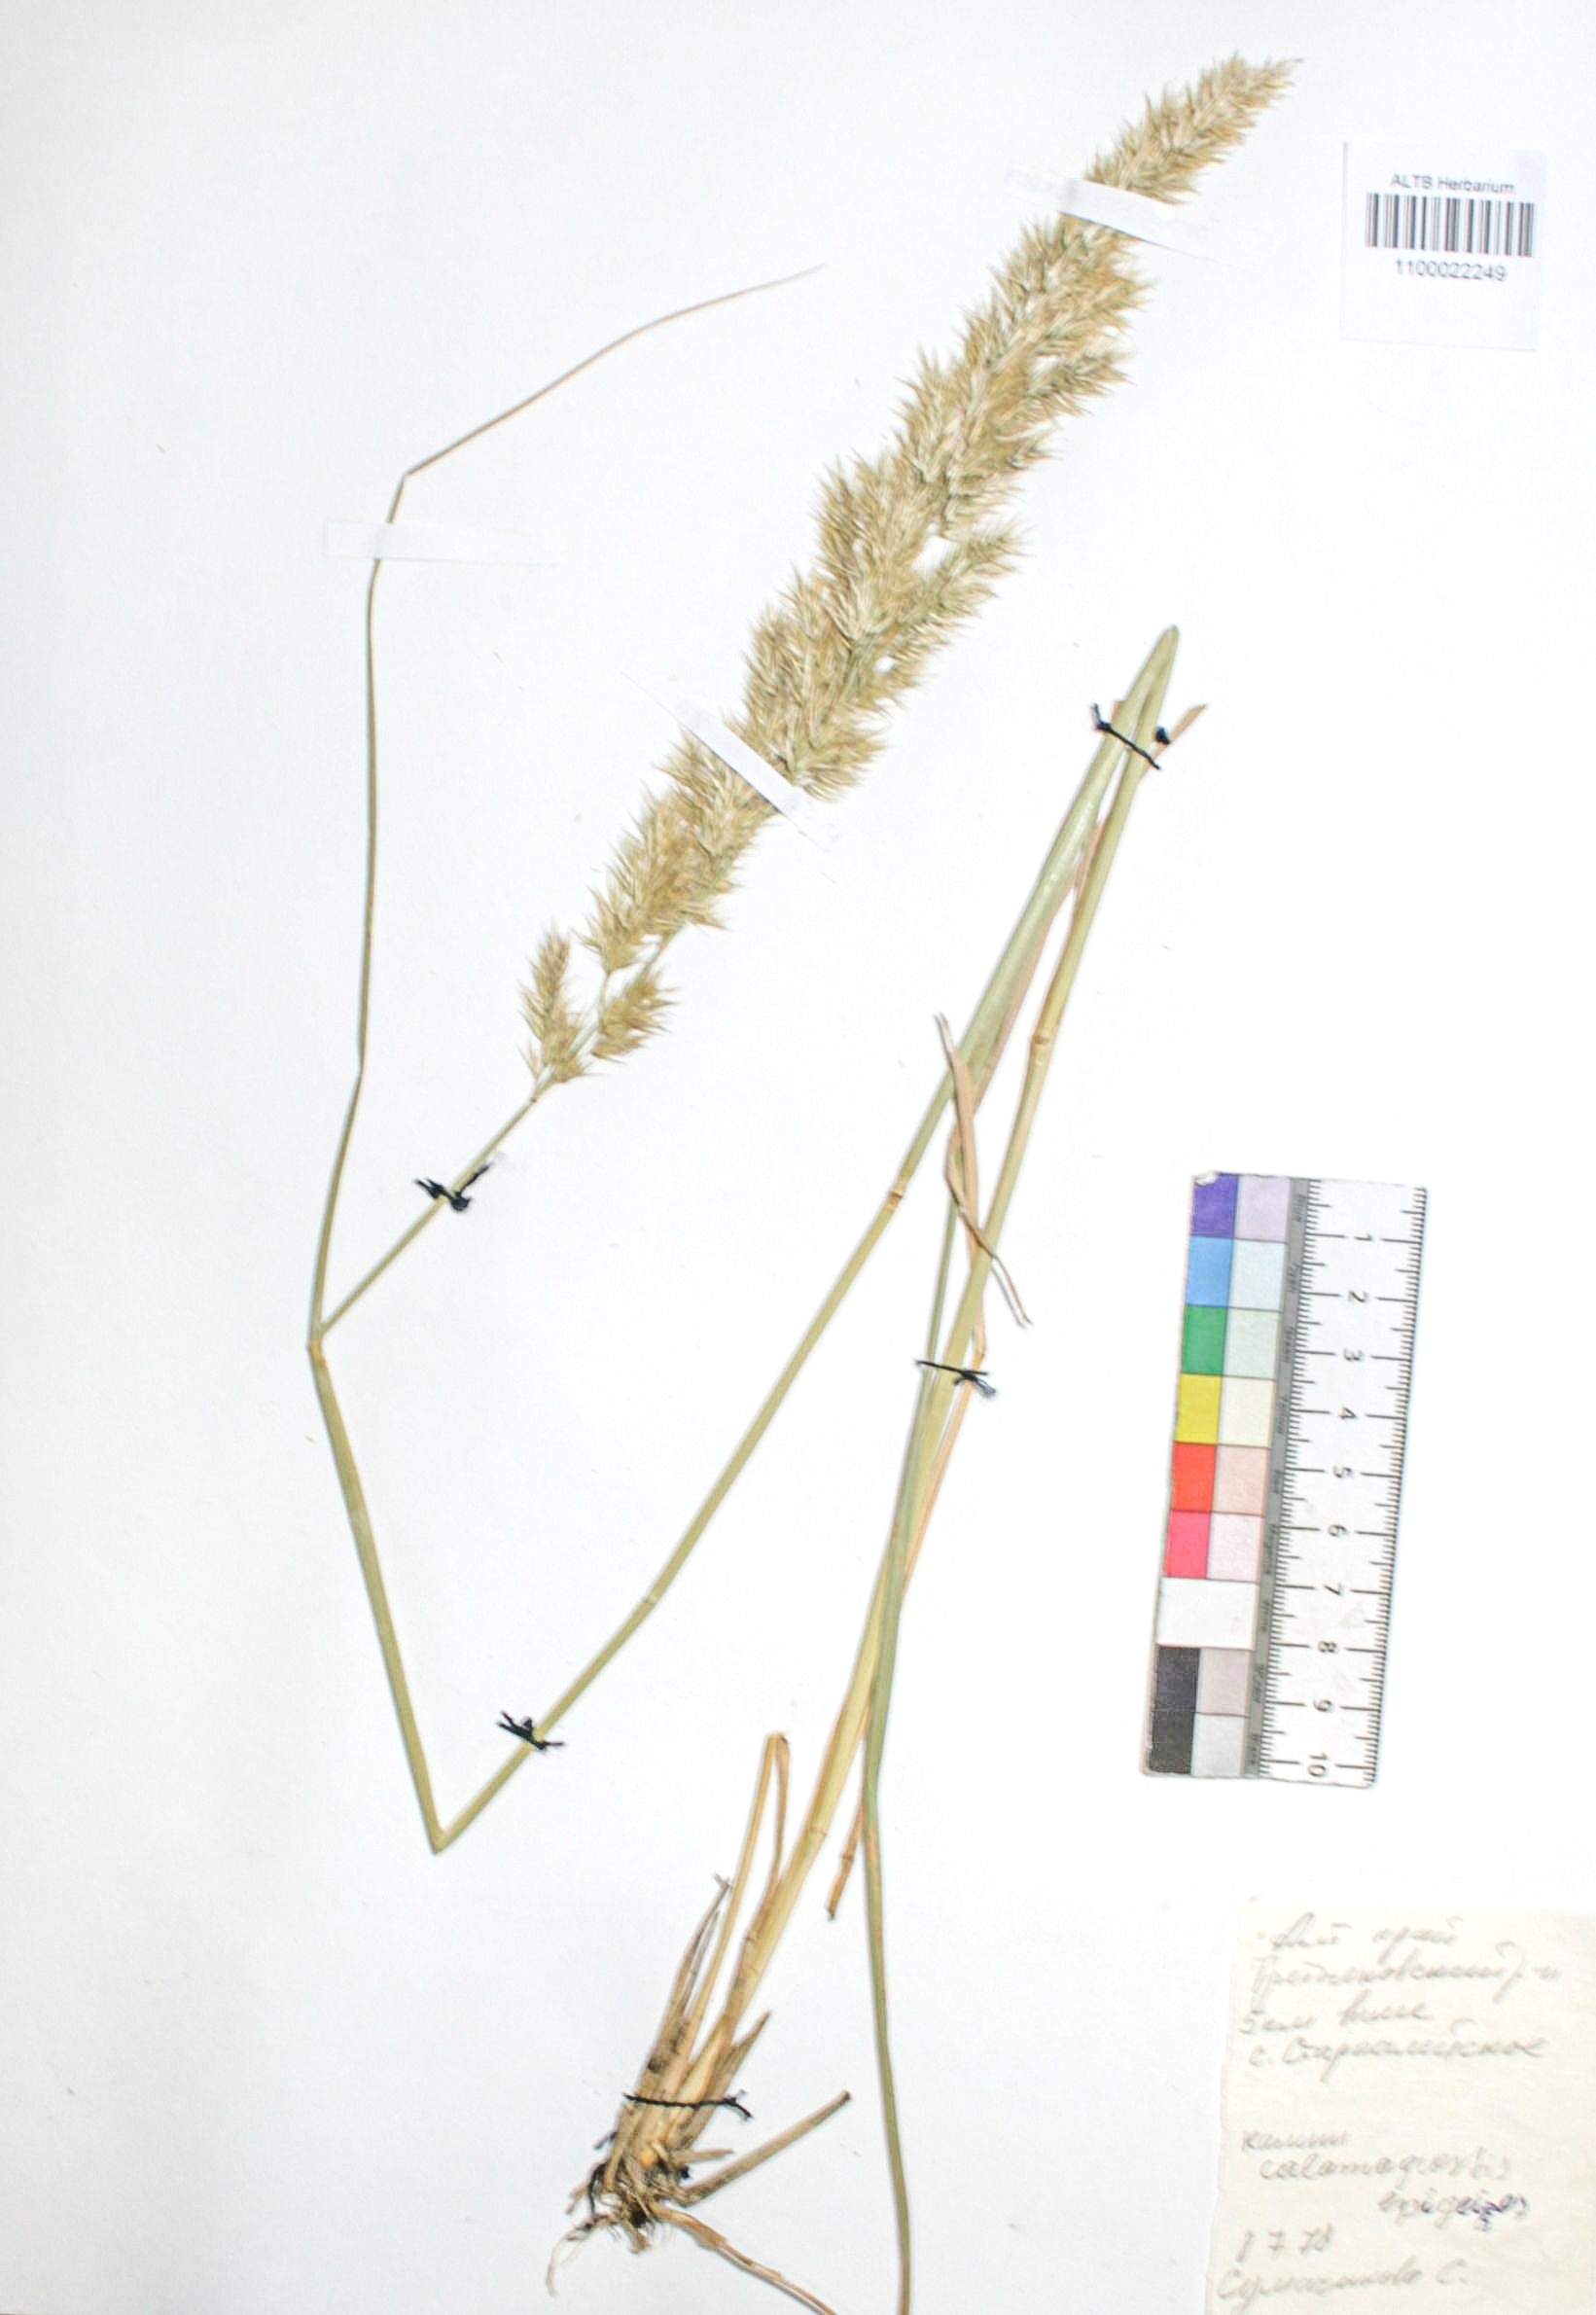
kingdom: Plantae
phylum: Tracheophyta
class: Liliopsida
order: Poales
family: Poaceae
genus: Calamagrostis
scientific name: Calamagrostis epigejos
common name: Wood small-reed
